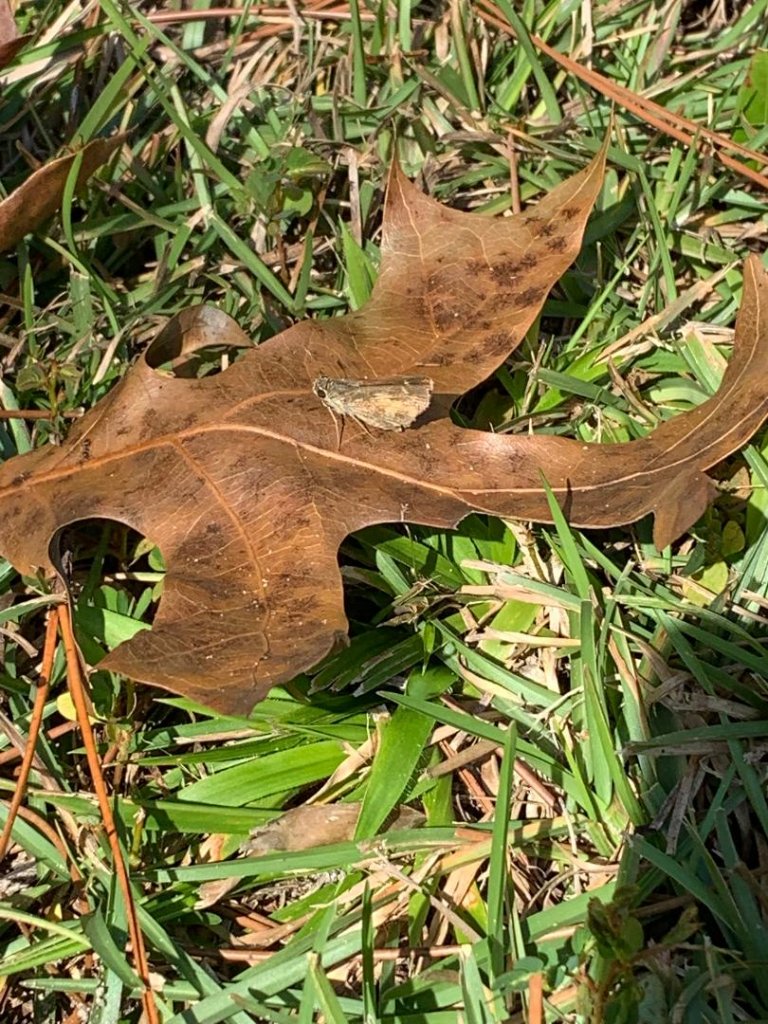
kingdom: Animalia
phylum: Arthropoda
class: Insecta
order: Lepidoptera
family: Hesperiidae
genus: Polites
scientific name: Polites vibex
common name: Whirlabout
